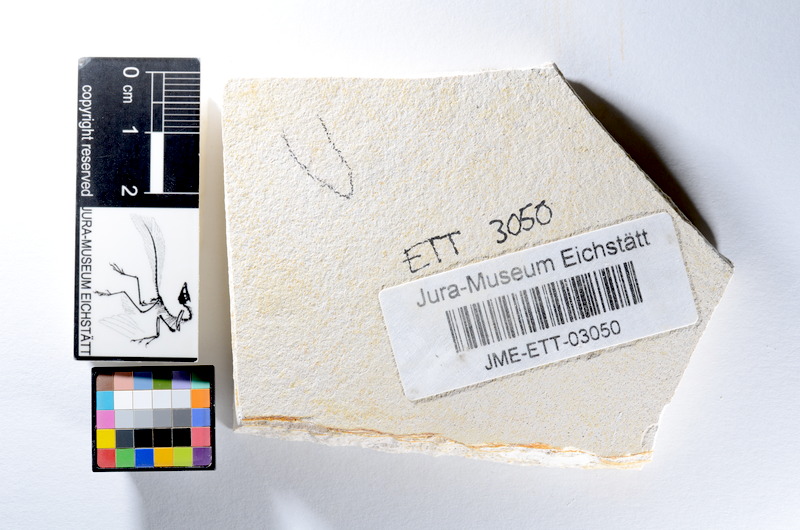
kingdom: Animalia
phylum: Chordata
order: Salmoniformes
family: Orthogonikleithridae
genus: Orthogonikleithrus
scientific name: Orthogonikleithrus hoelli
